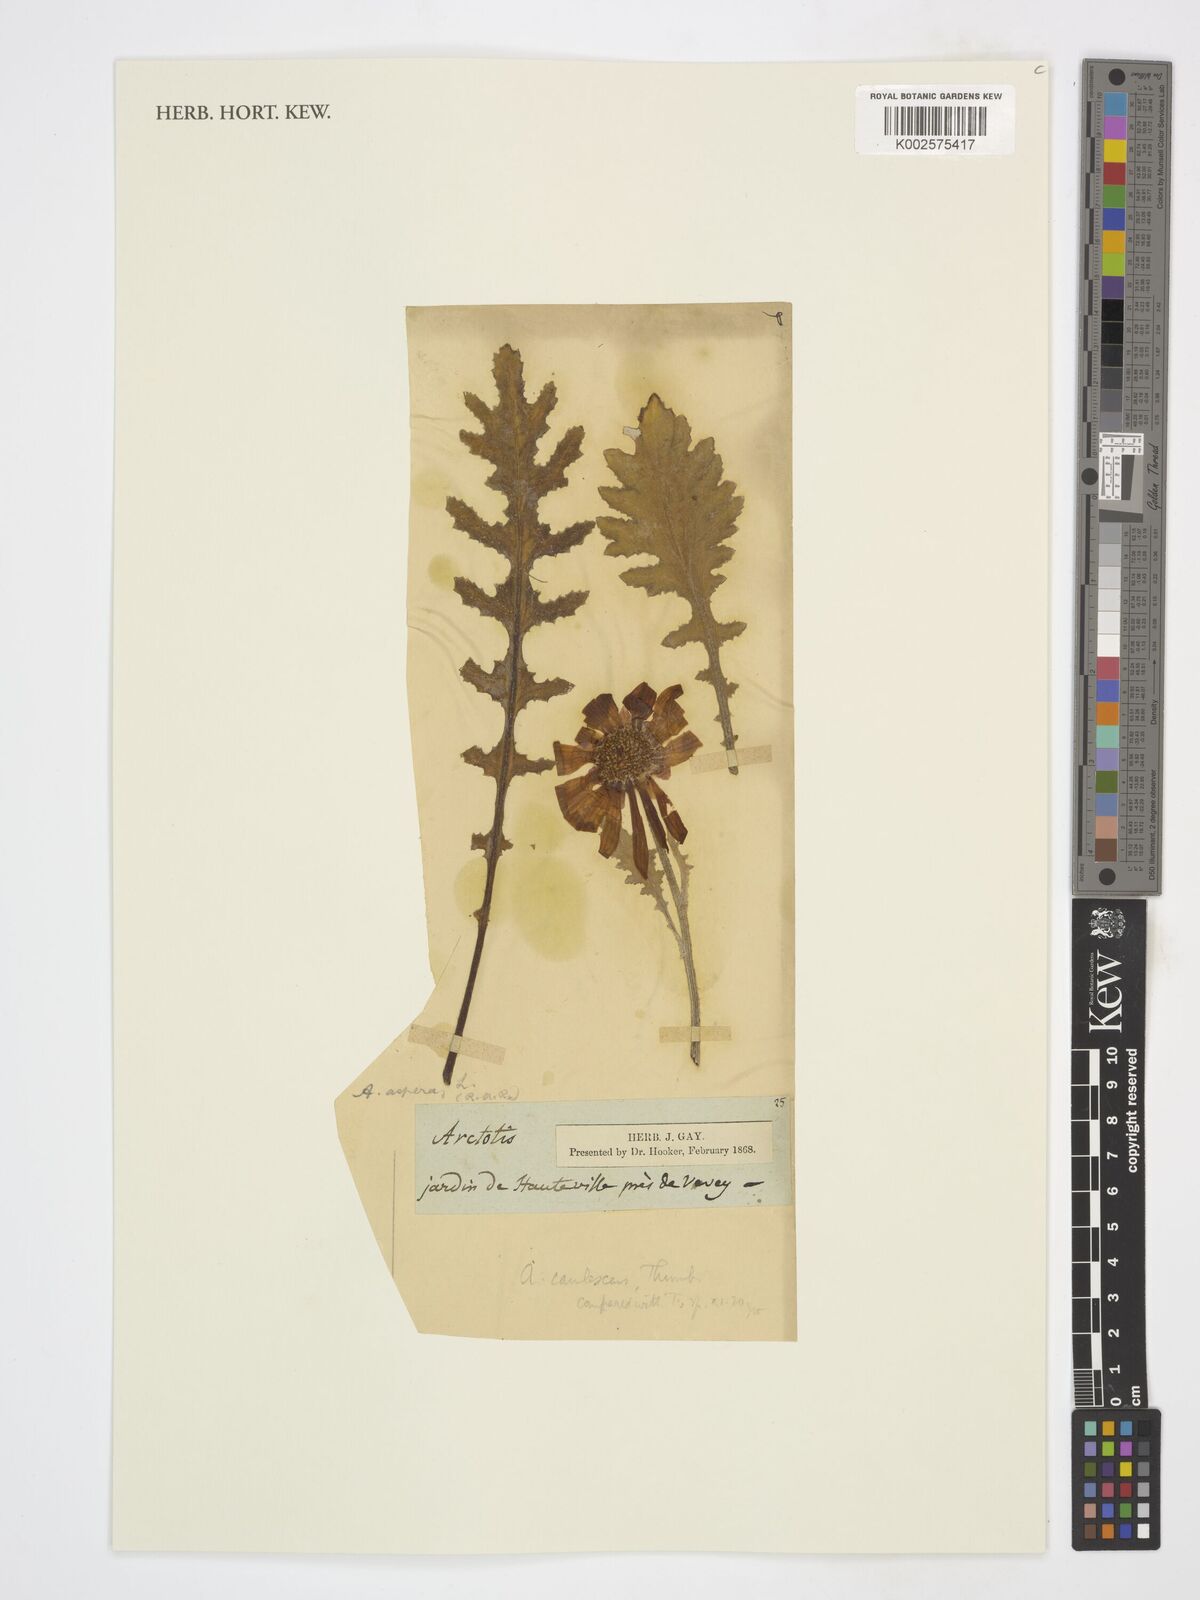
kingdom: Plantae
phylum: Tracheophyta
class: Magnoliopsida
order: Asterales
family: Asteraceae
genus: Arctotis
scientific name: Arctotis
